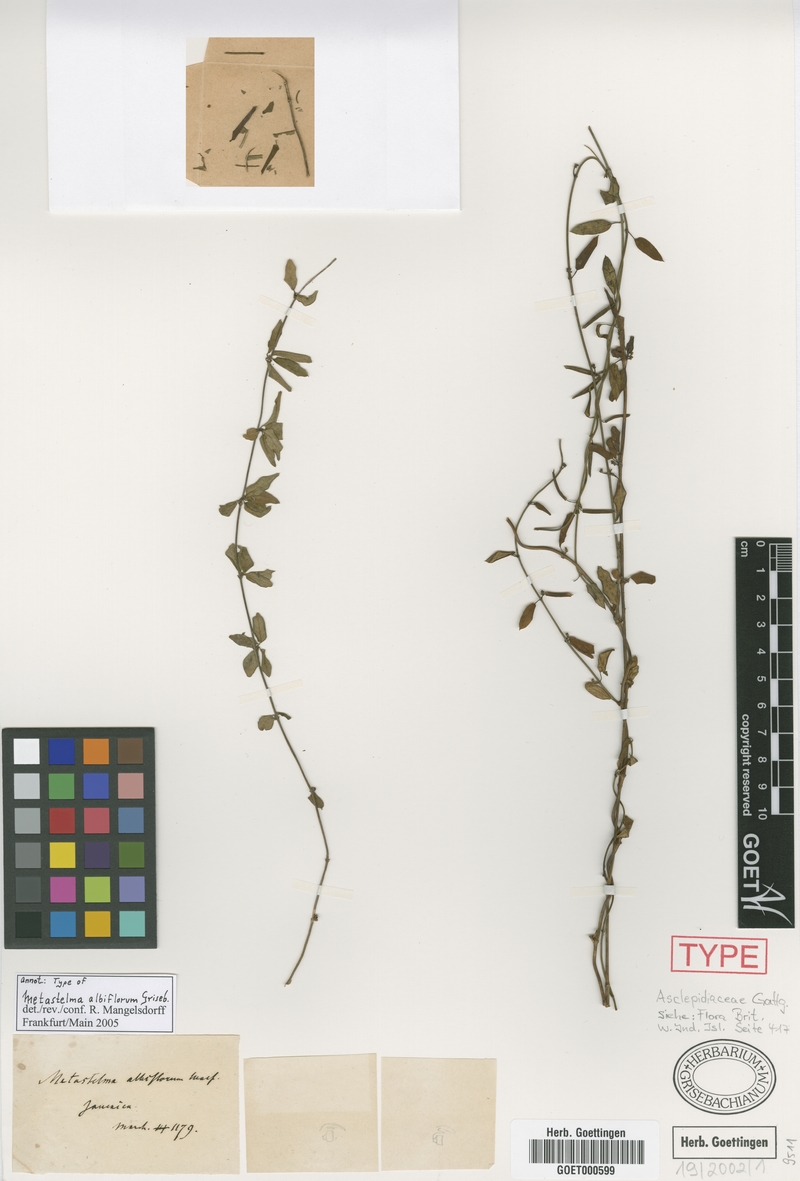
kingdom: Plantae
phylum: Tracheophyta
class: Magnoliopsida
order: Gentianales
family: Apocynaceae
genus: Metastelma
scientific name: Metastelma albiflorum
